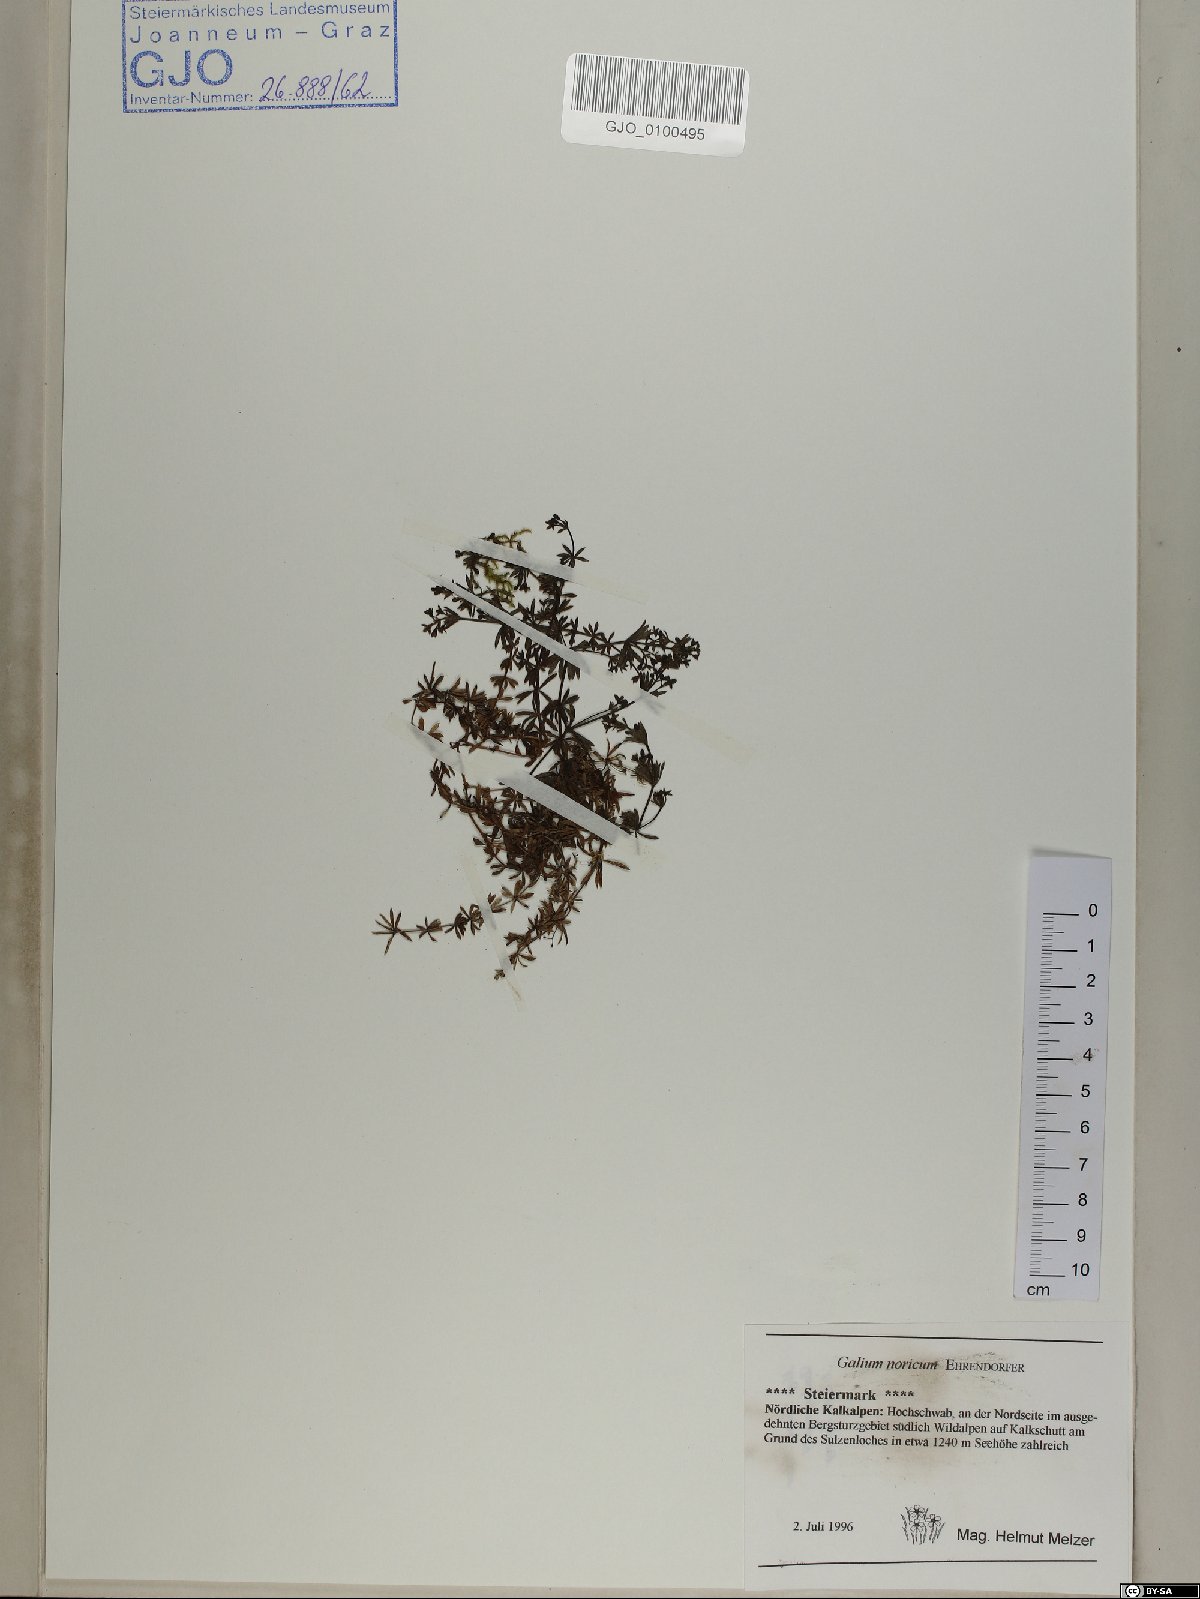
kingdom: Plantae
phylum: Tracheophyta
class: Magnoliopsida
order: Gentianales
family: Rubiaceae
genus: Galium
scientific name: Galium noricum
